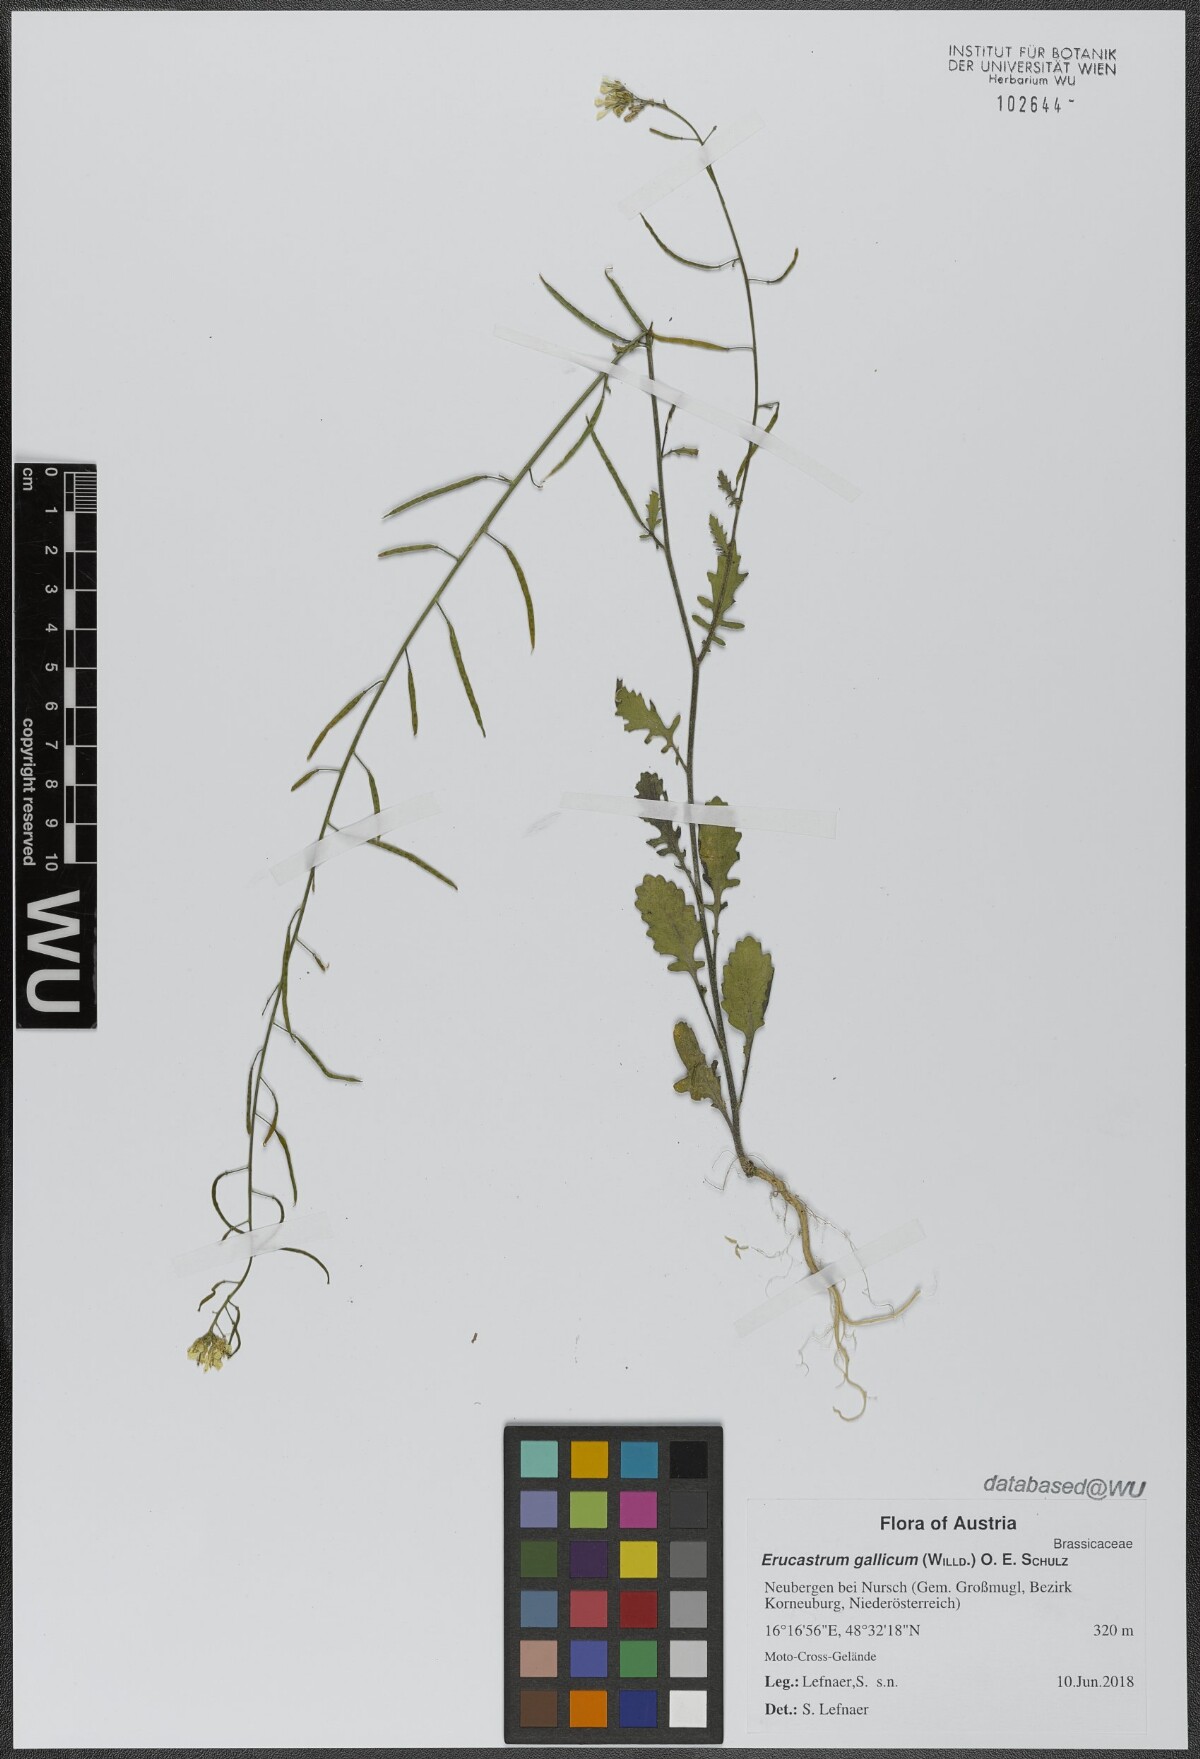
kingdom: Plantae
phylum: Tracheophyta
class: Magnoliopsida
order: Brassicales
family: Brassicaceae
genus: Erucastrum
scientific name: Erucastrum gallicum
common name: Hairy rocket
